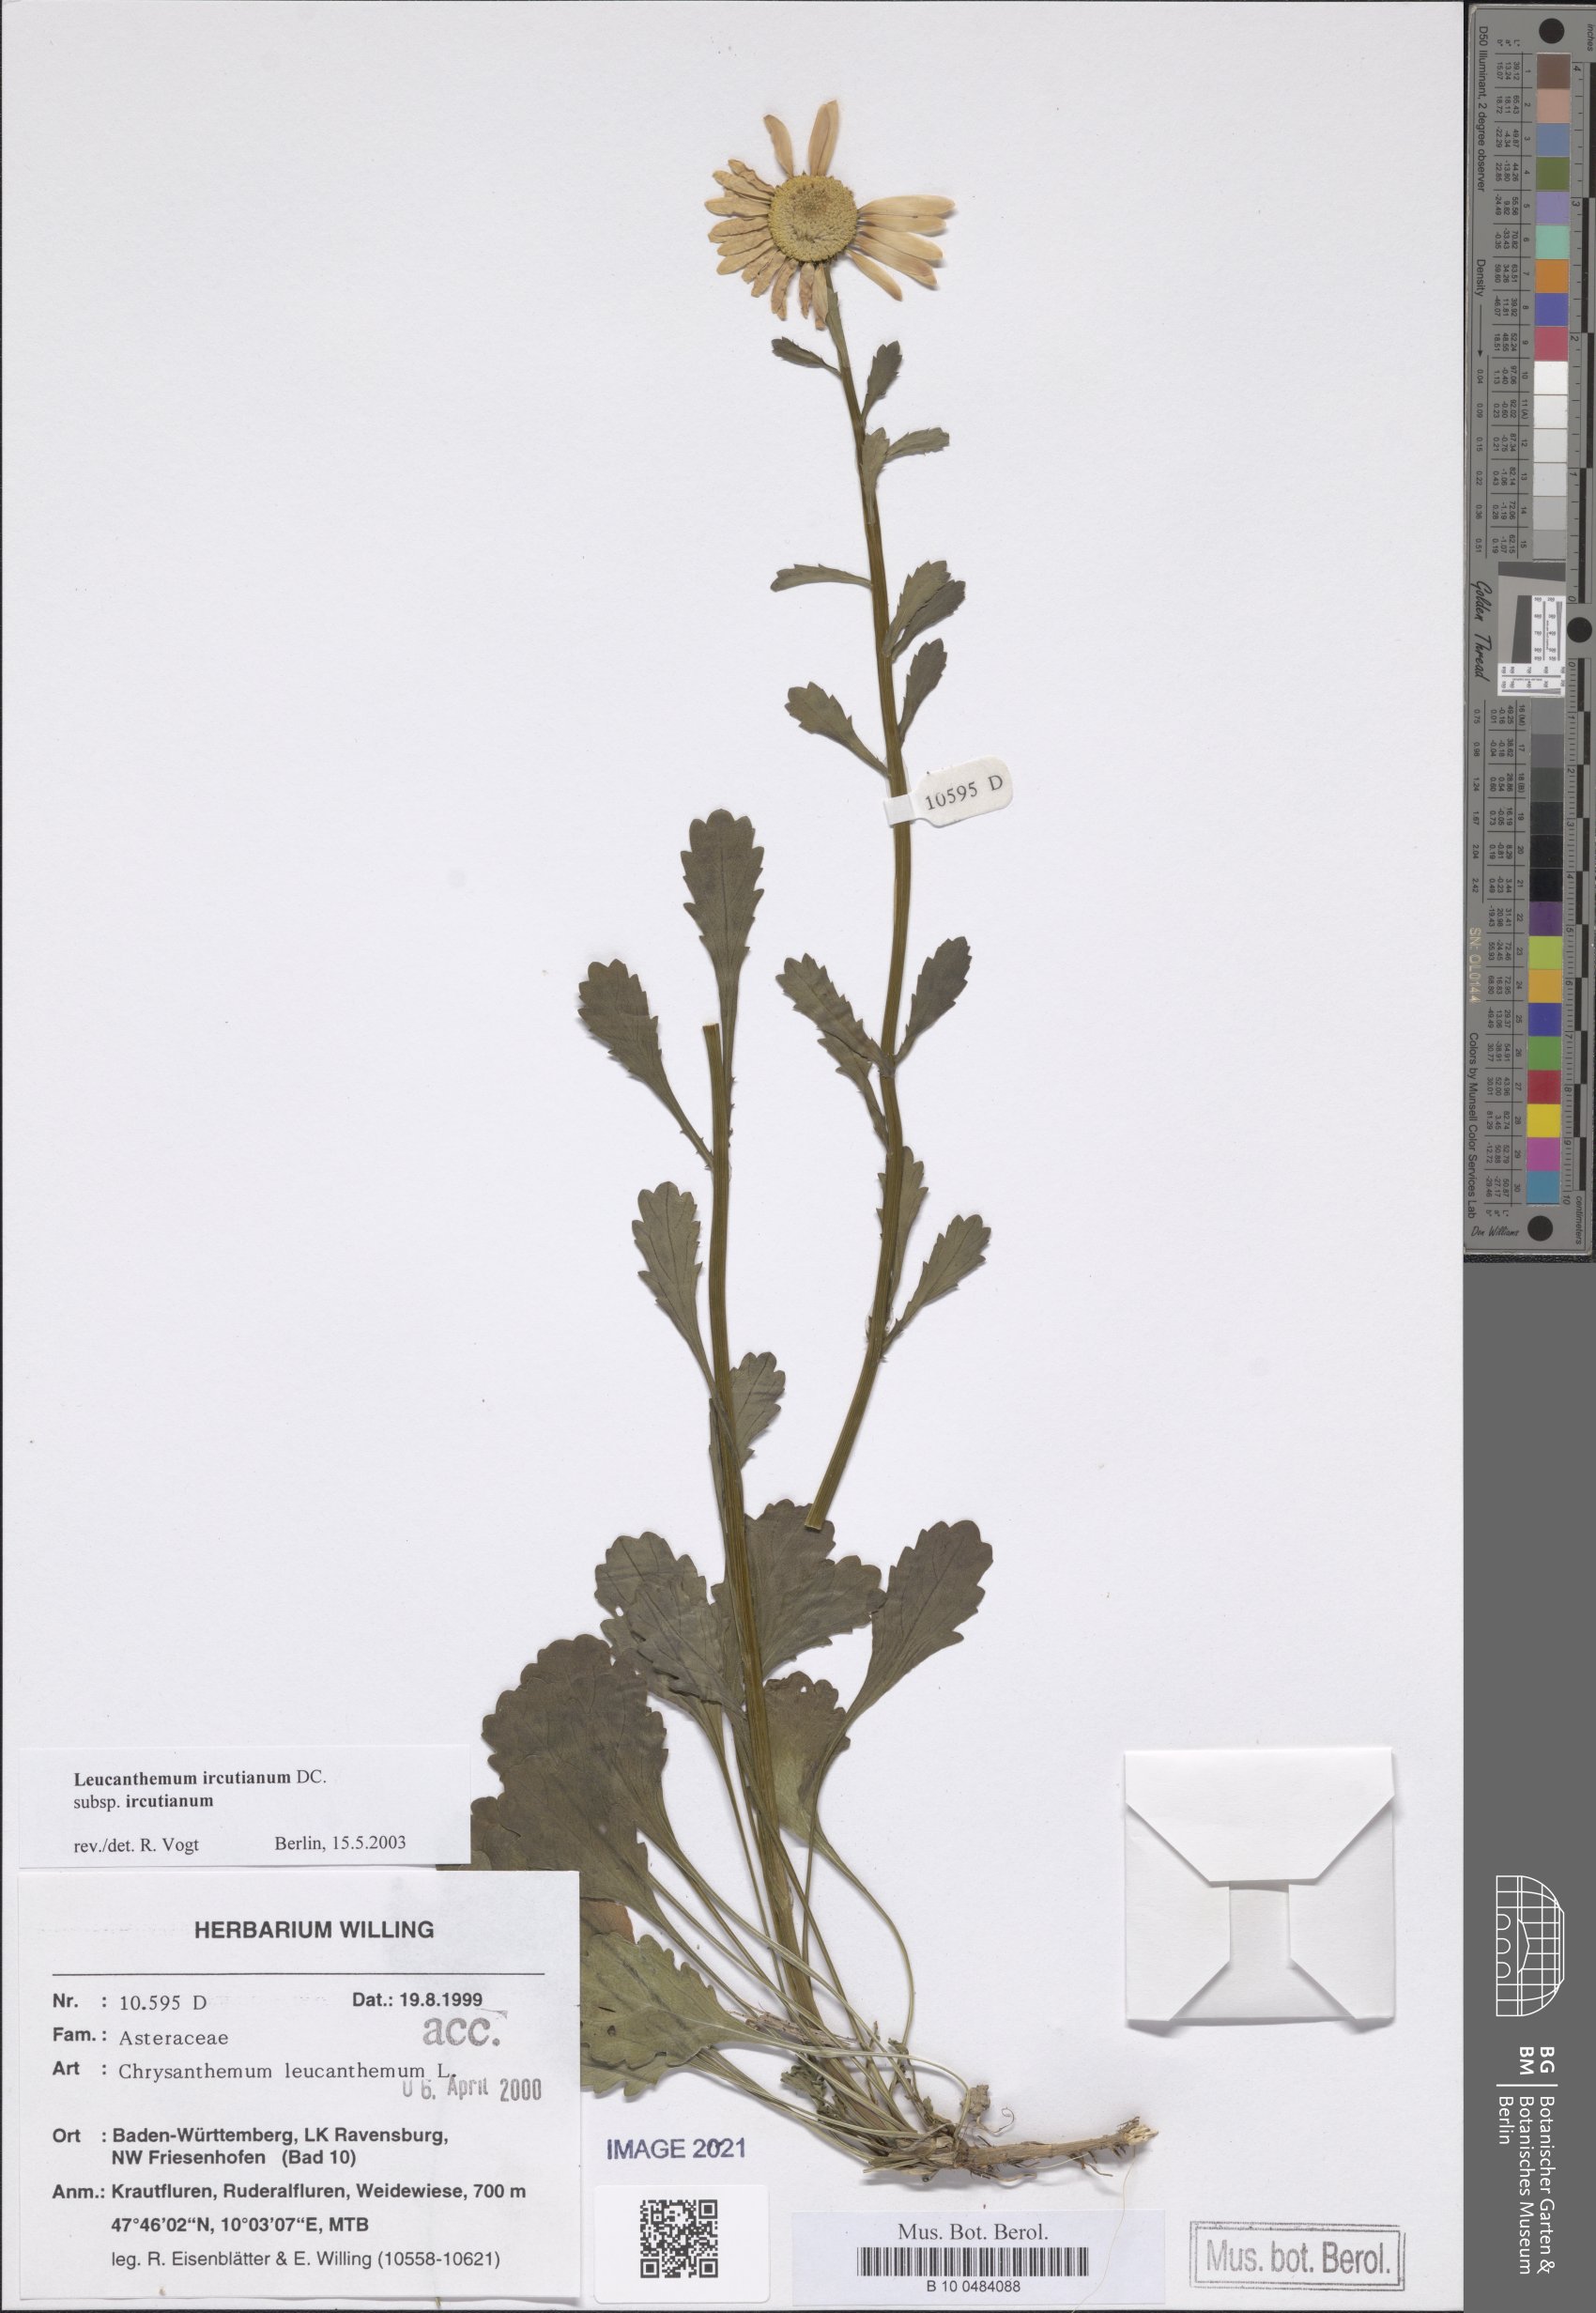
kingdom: Plantae
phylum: Tracheophyta
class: Magnoliopsida
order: Asterales
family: Asteraceae
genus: Leucanthemum
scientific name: Leucanthemum ircutianum
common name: Daisy
